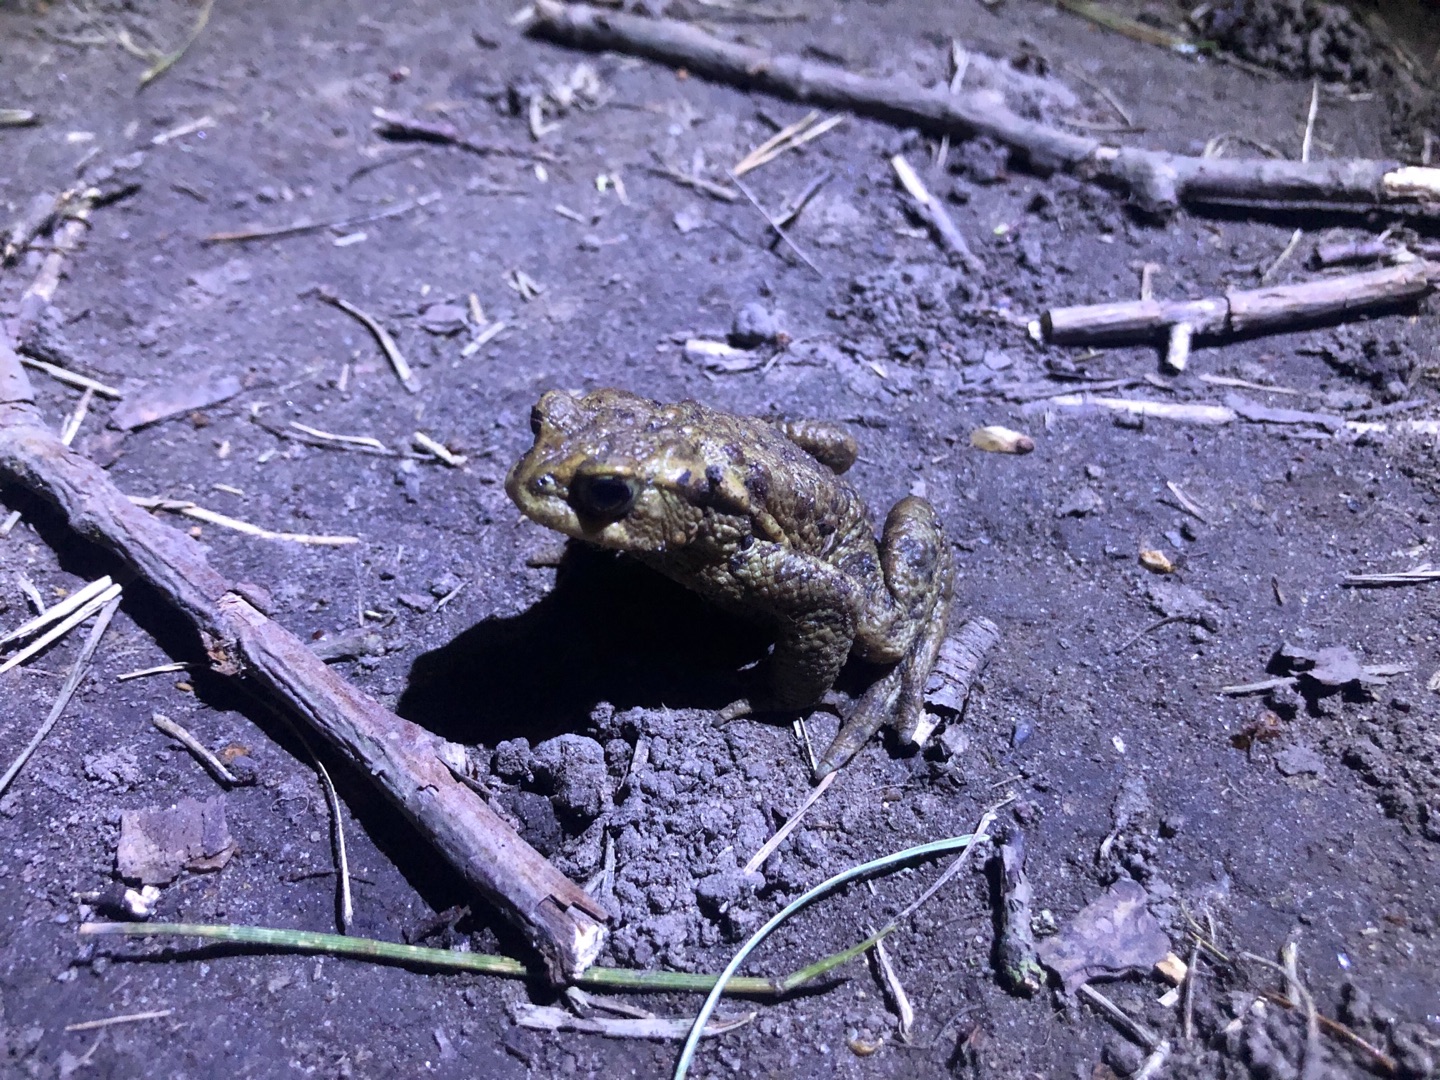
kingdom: Animalia
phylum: Chordata
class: Amphibia
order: Anura
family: Bufonidae
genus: Bufo
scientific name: Bufo bufo
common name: Skrubtudse
